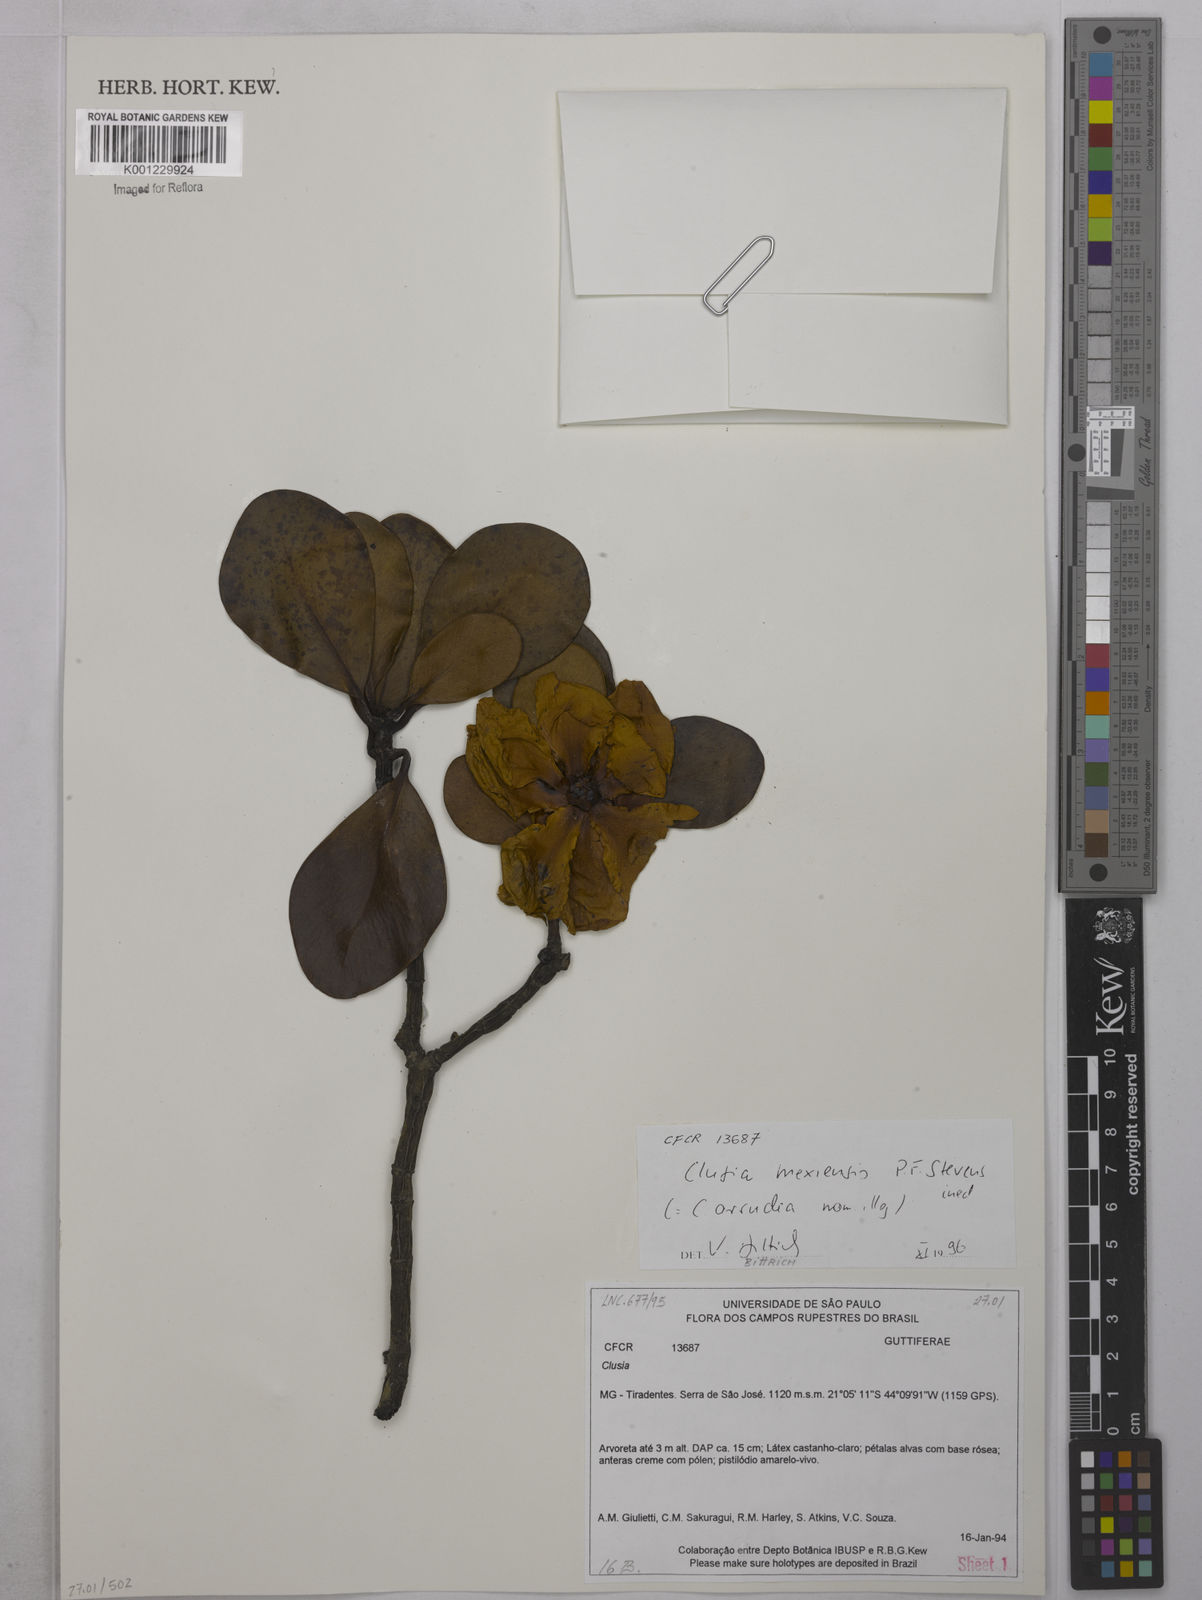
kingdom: Plantae
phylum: Tracheophyta
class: Magnoliopsida
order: Malpighiales
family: Clusiaceae
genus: Clusia
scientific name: Clusia
